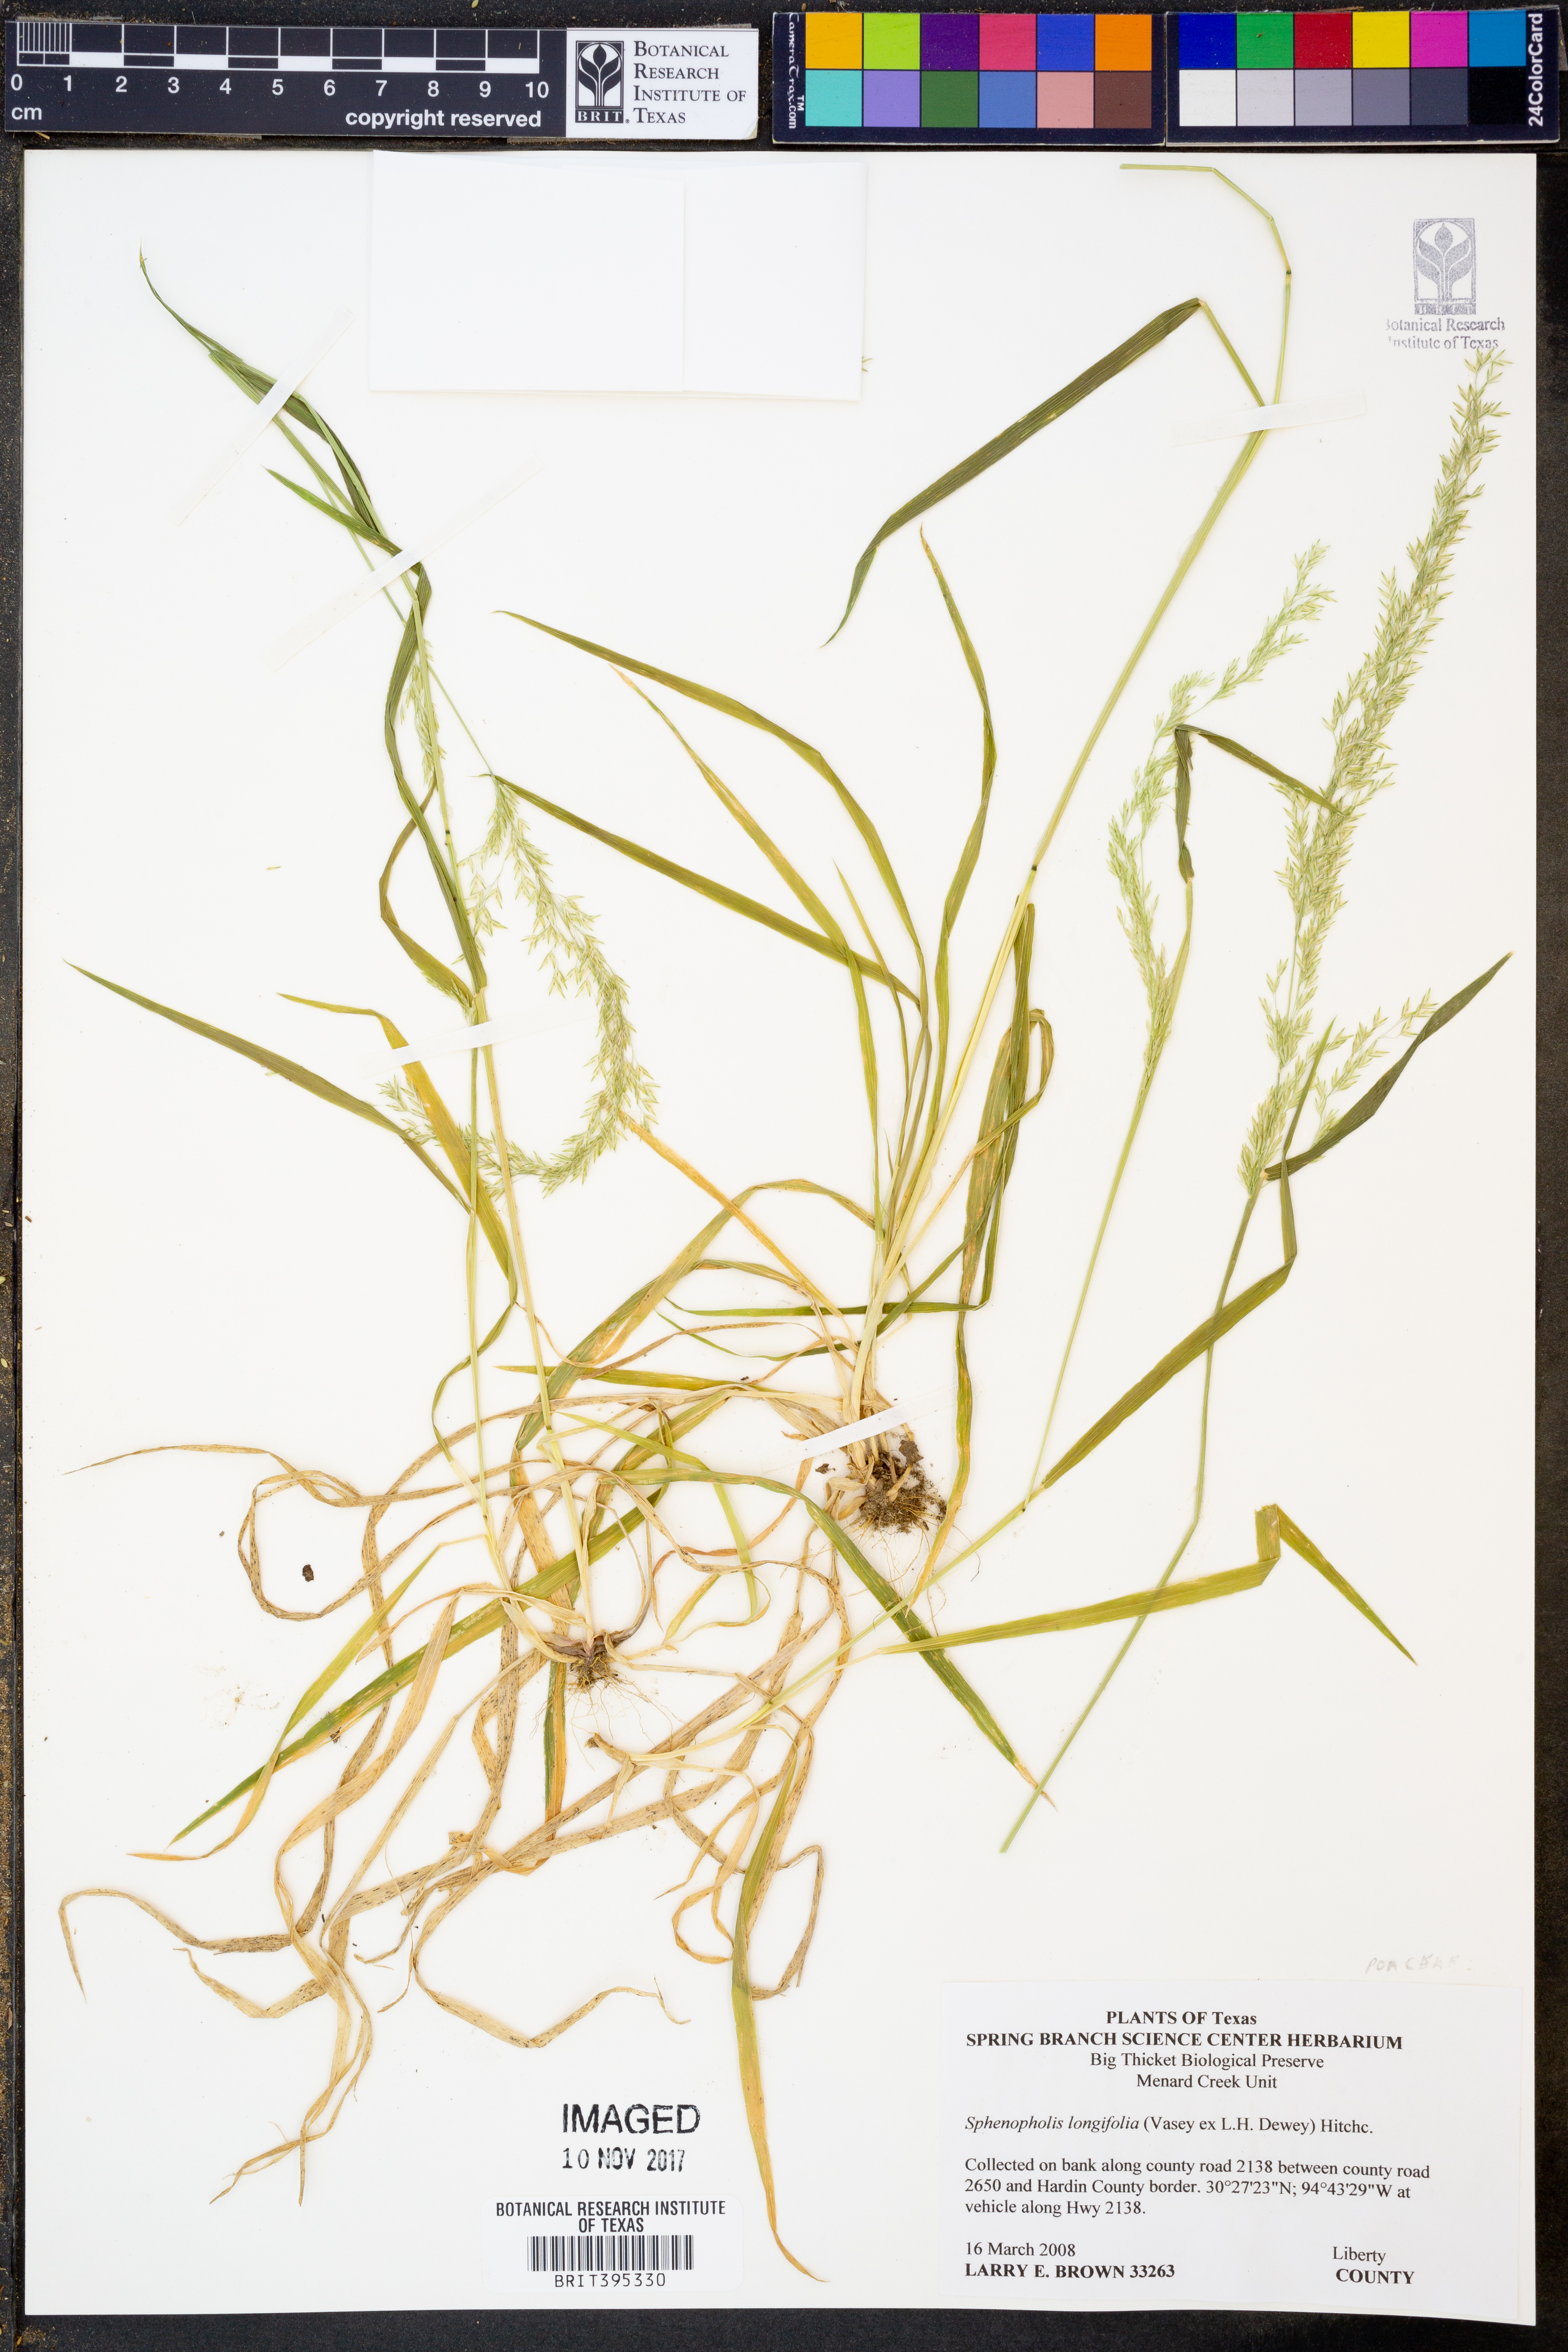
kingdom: Plantae
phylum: Tracheophyta
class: Liliopsida
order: Poales
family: Poaceae
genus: Sphenopholis
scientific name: Sphenopholis intermedia
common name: Intermediate eaton's grass
